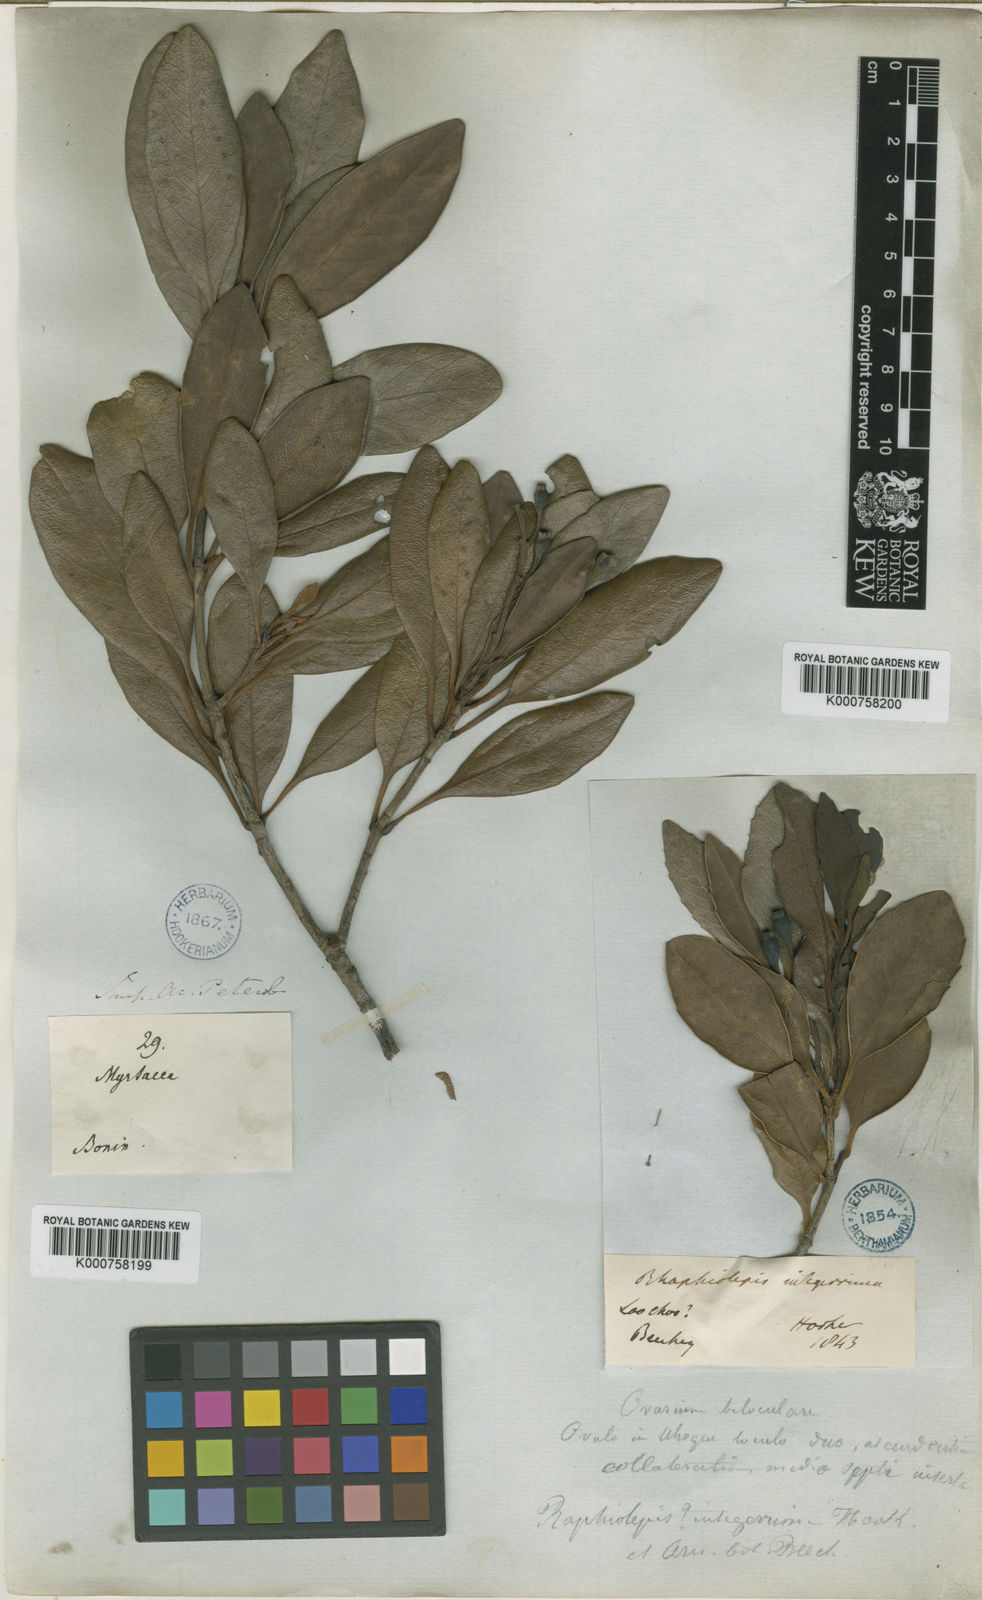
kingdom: Plantae
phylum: Tracheophyta
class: Magnoliopsida
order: Rosales
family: Rosaceae
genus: Rhaphiolepis
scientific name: Rhaphiolepis umbellata
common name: Yedda-hawthorn
